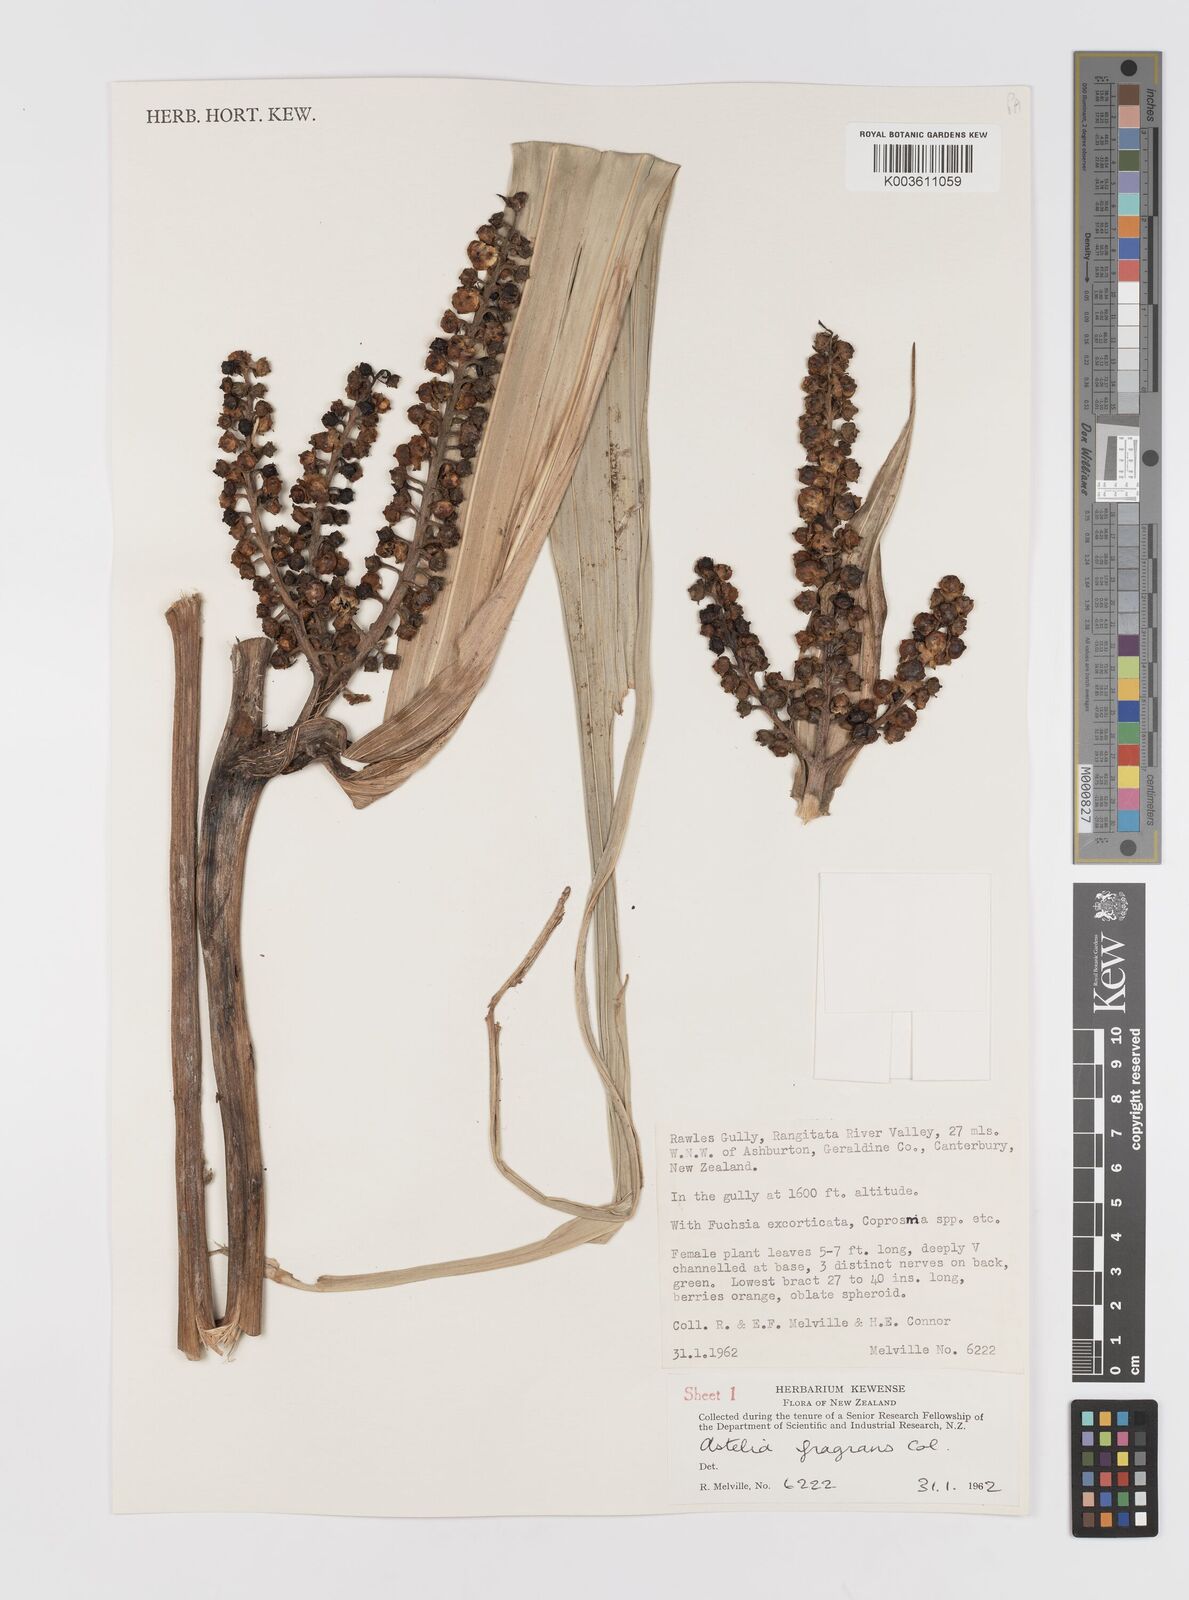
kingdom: Plantae
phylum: Tracheophyta
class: Liliopsida
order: Asparagales
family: Asteliaceae
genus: Astelia
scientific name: Astelia fragrans
